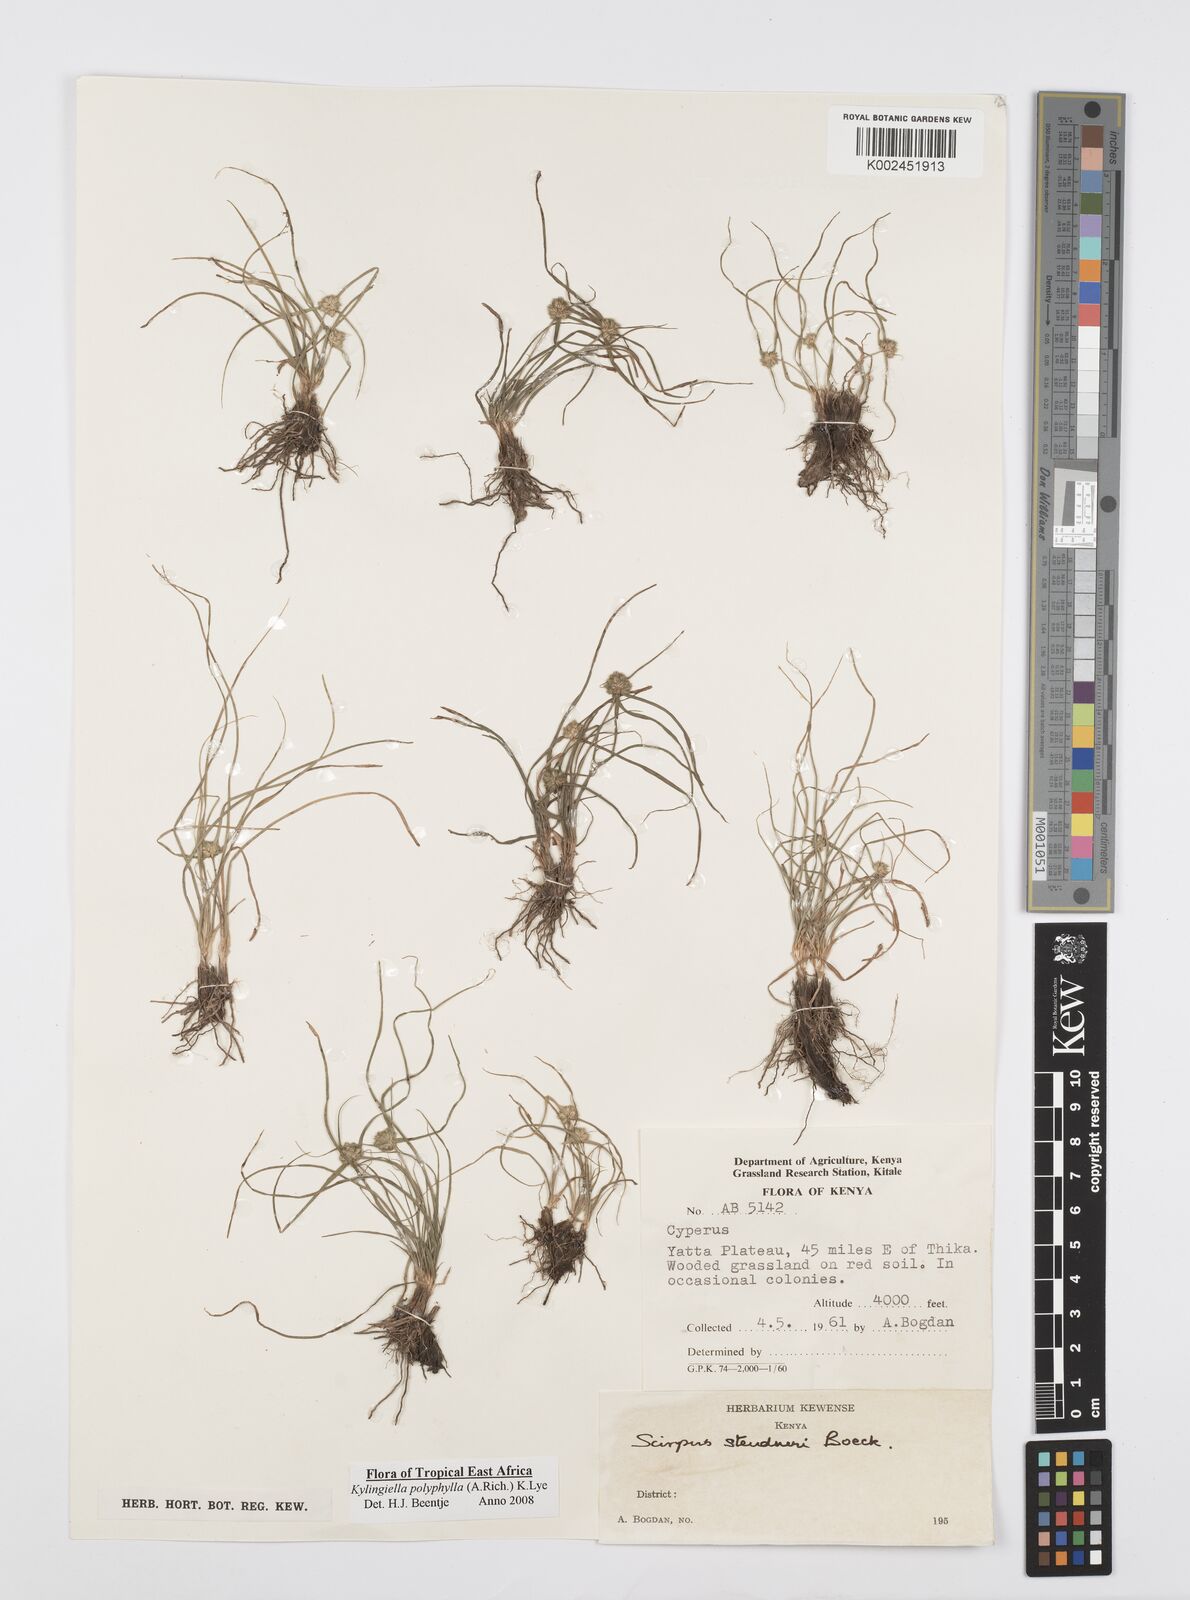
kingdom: Plantae
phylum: Tracheophyta
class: Liliopsida
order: Poales
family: Cyperaceae
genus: Cyperus
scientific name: Cyperus bulbosus
